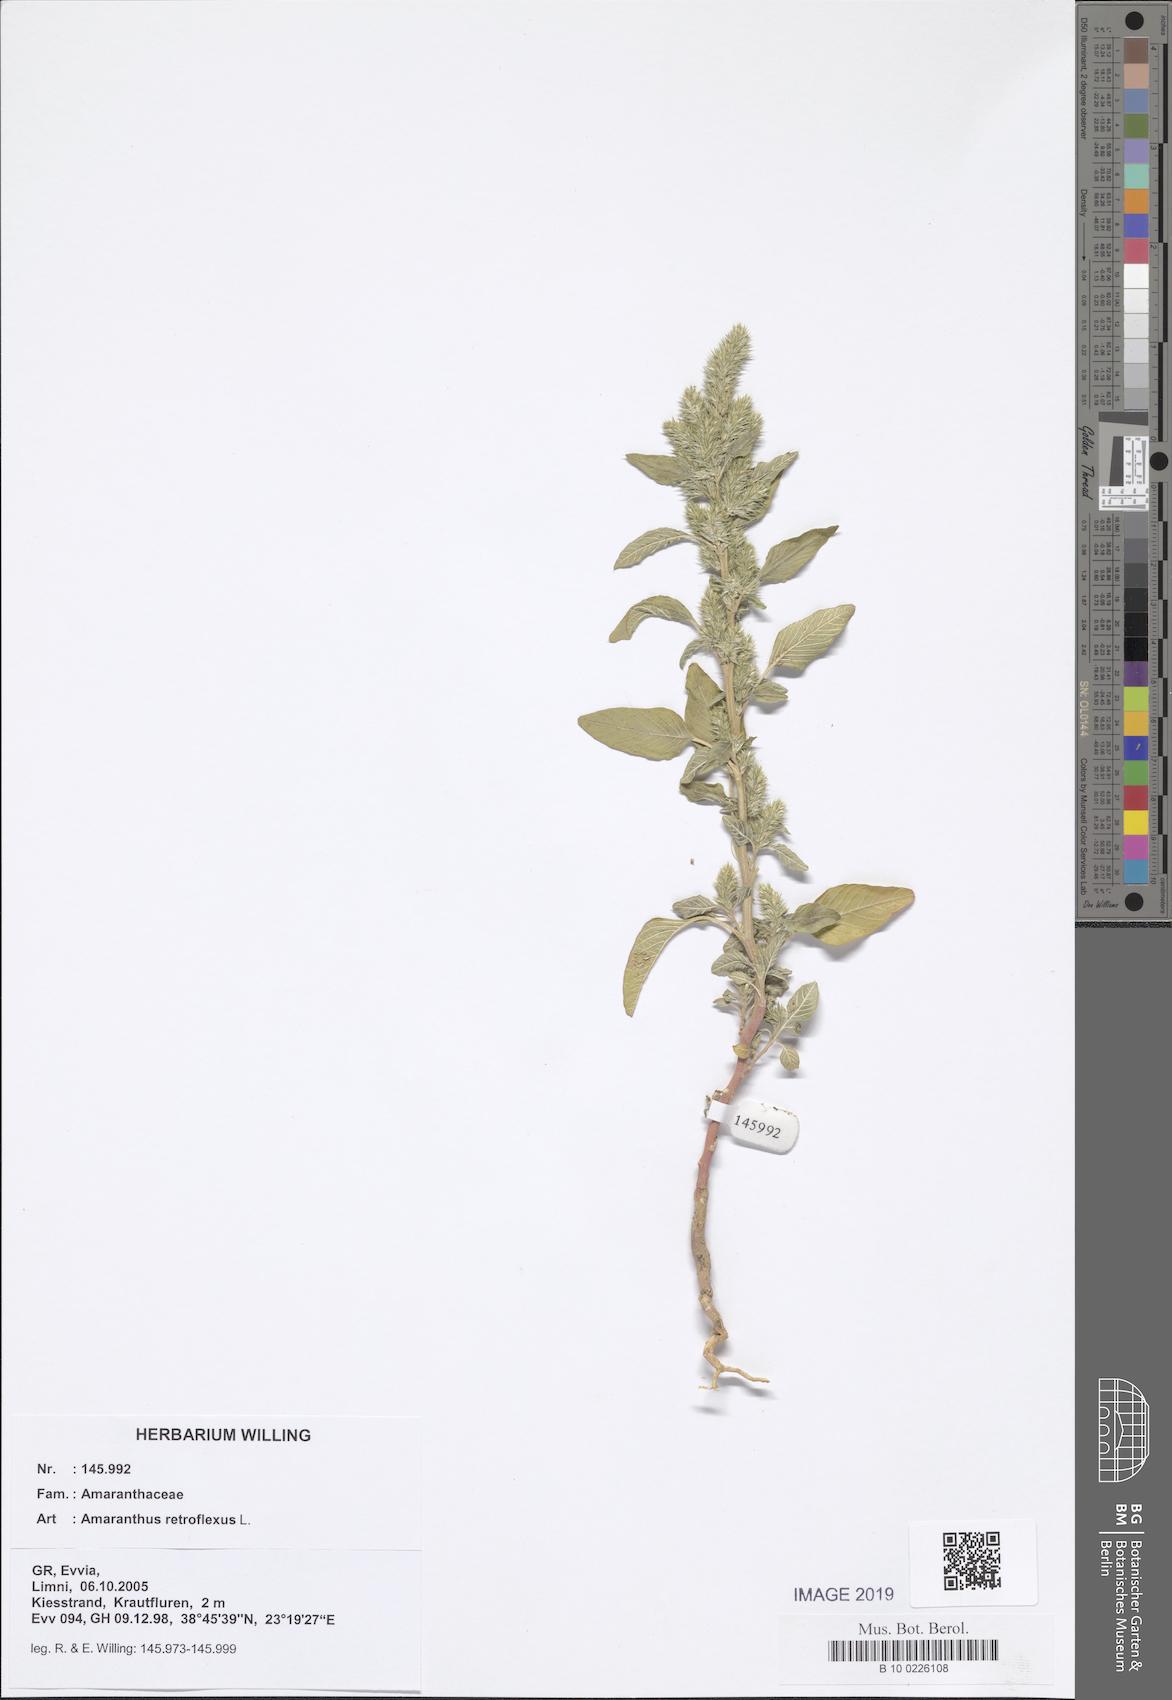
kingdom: Plantae
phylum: Tracheophyta
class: Magnoliopsida
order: Caryophyllales
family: Amaranthaceae
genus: Amaranthus
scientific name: Amaranthus retroflexus
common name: Redroot amaranth
